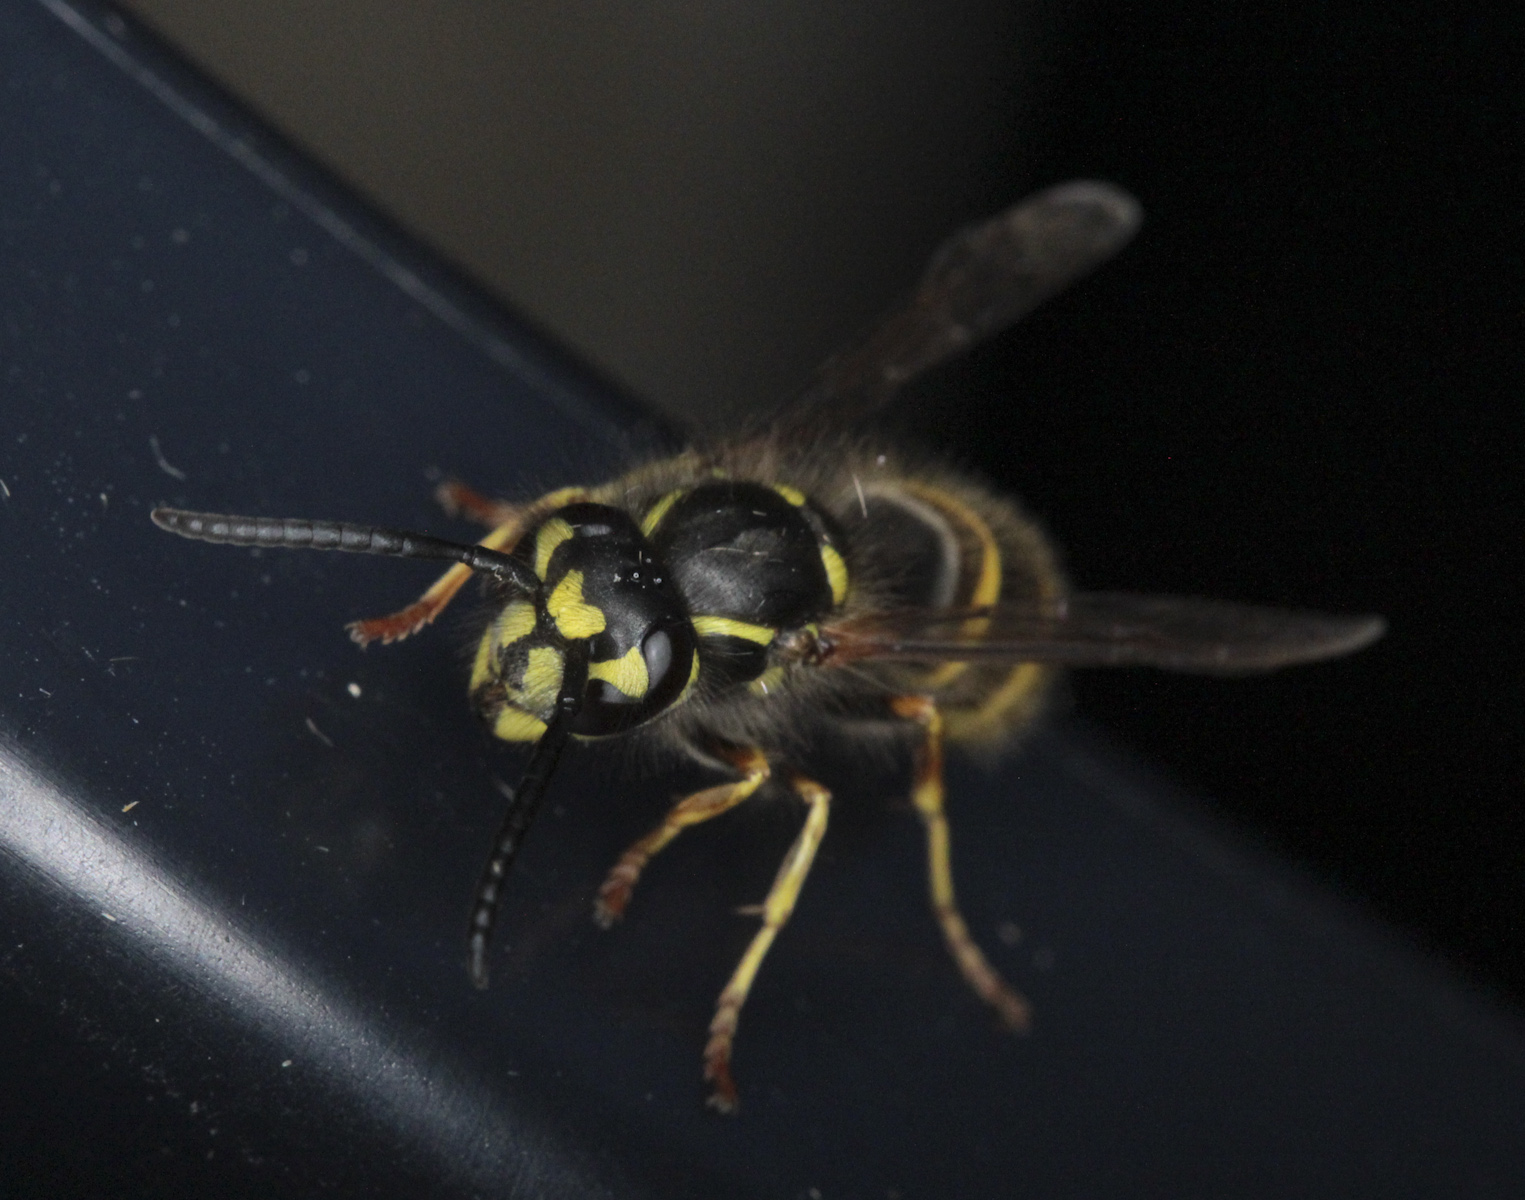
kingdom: Animalia
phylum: Arthropoda
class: Insecta
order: Hymenoptera
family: Vespidae
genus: Vespula
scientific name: Vespula vulgaris
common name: Common wasp
